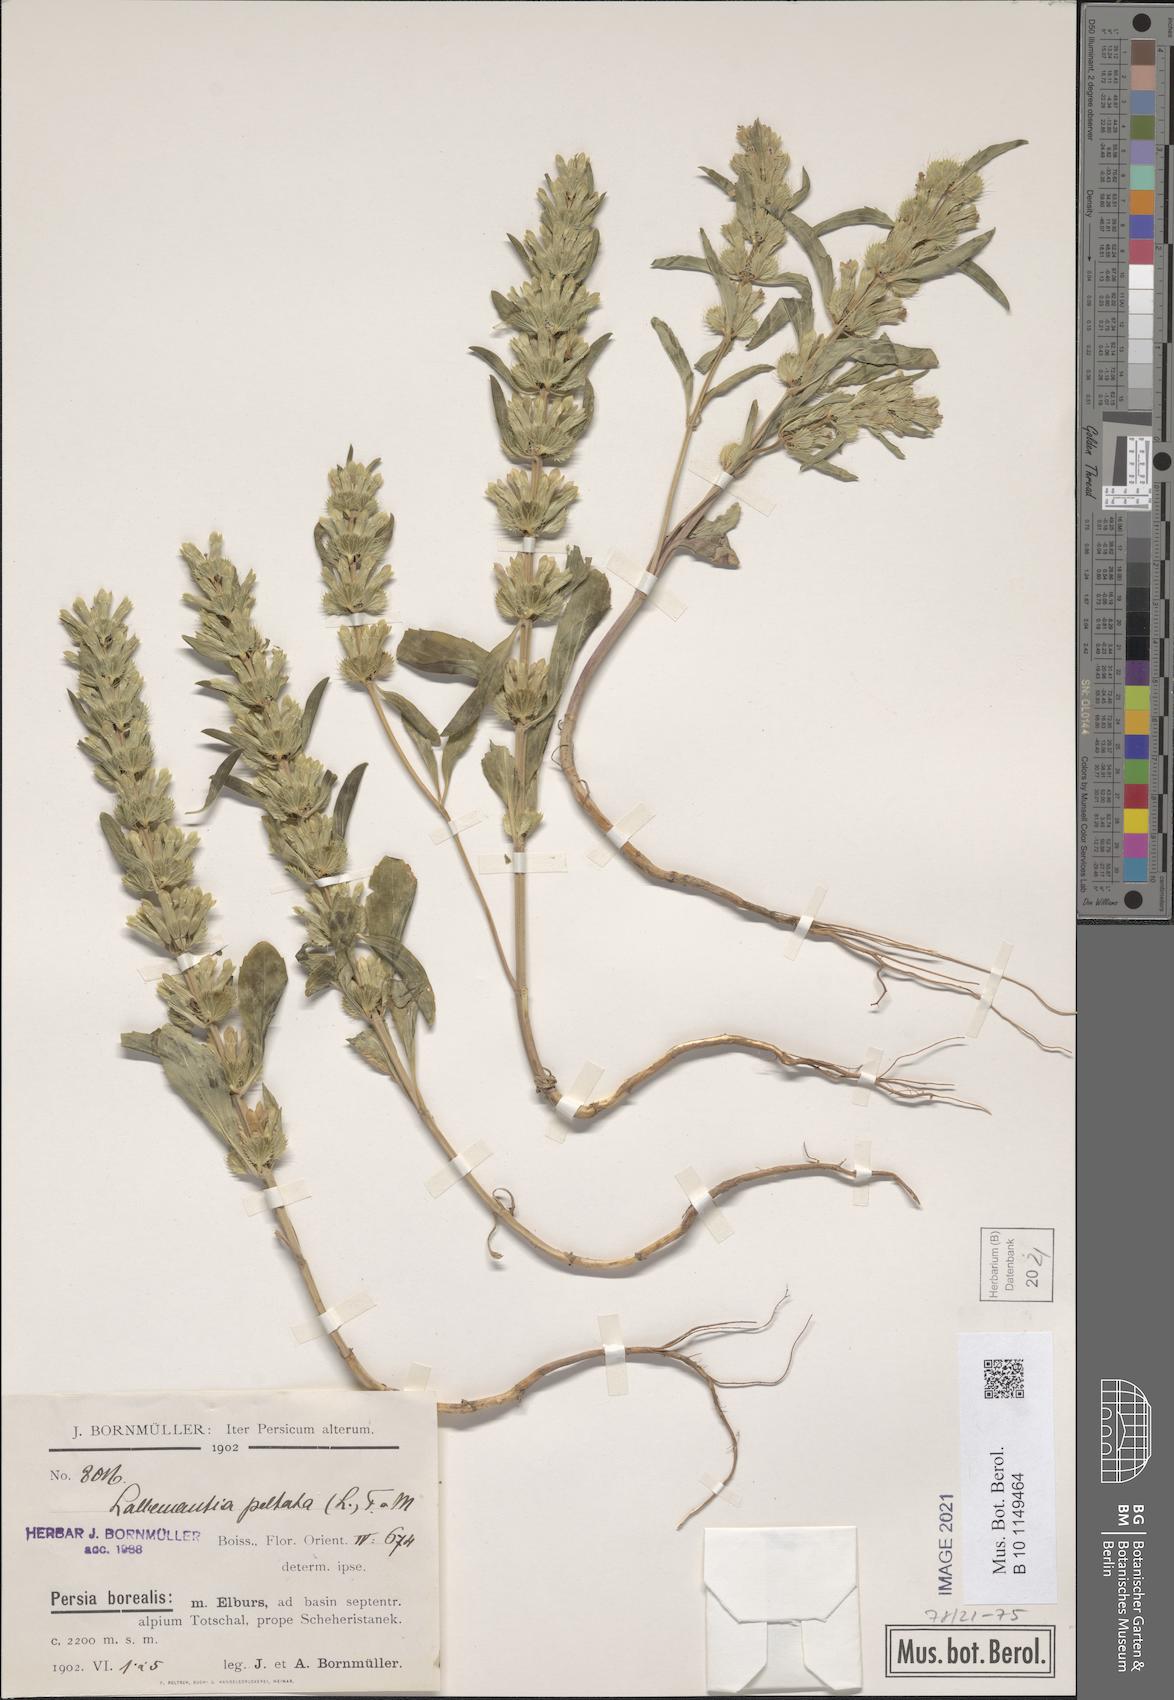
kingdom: Plantae
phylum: Tracheophyta
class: Magnoliopsida
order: Lamiales
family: Lamiaceae
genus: Lallemantia
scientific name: Lallemantia peltata
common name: Lion's heart
